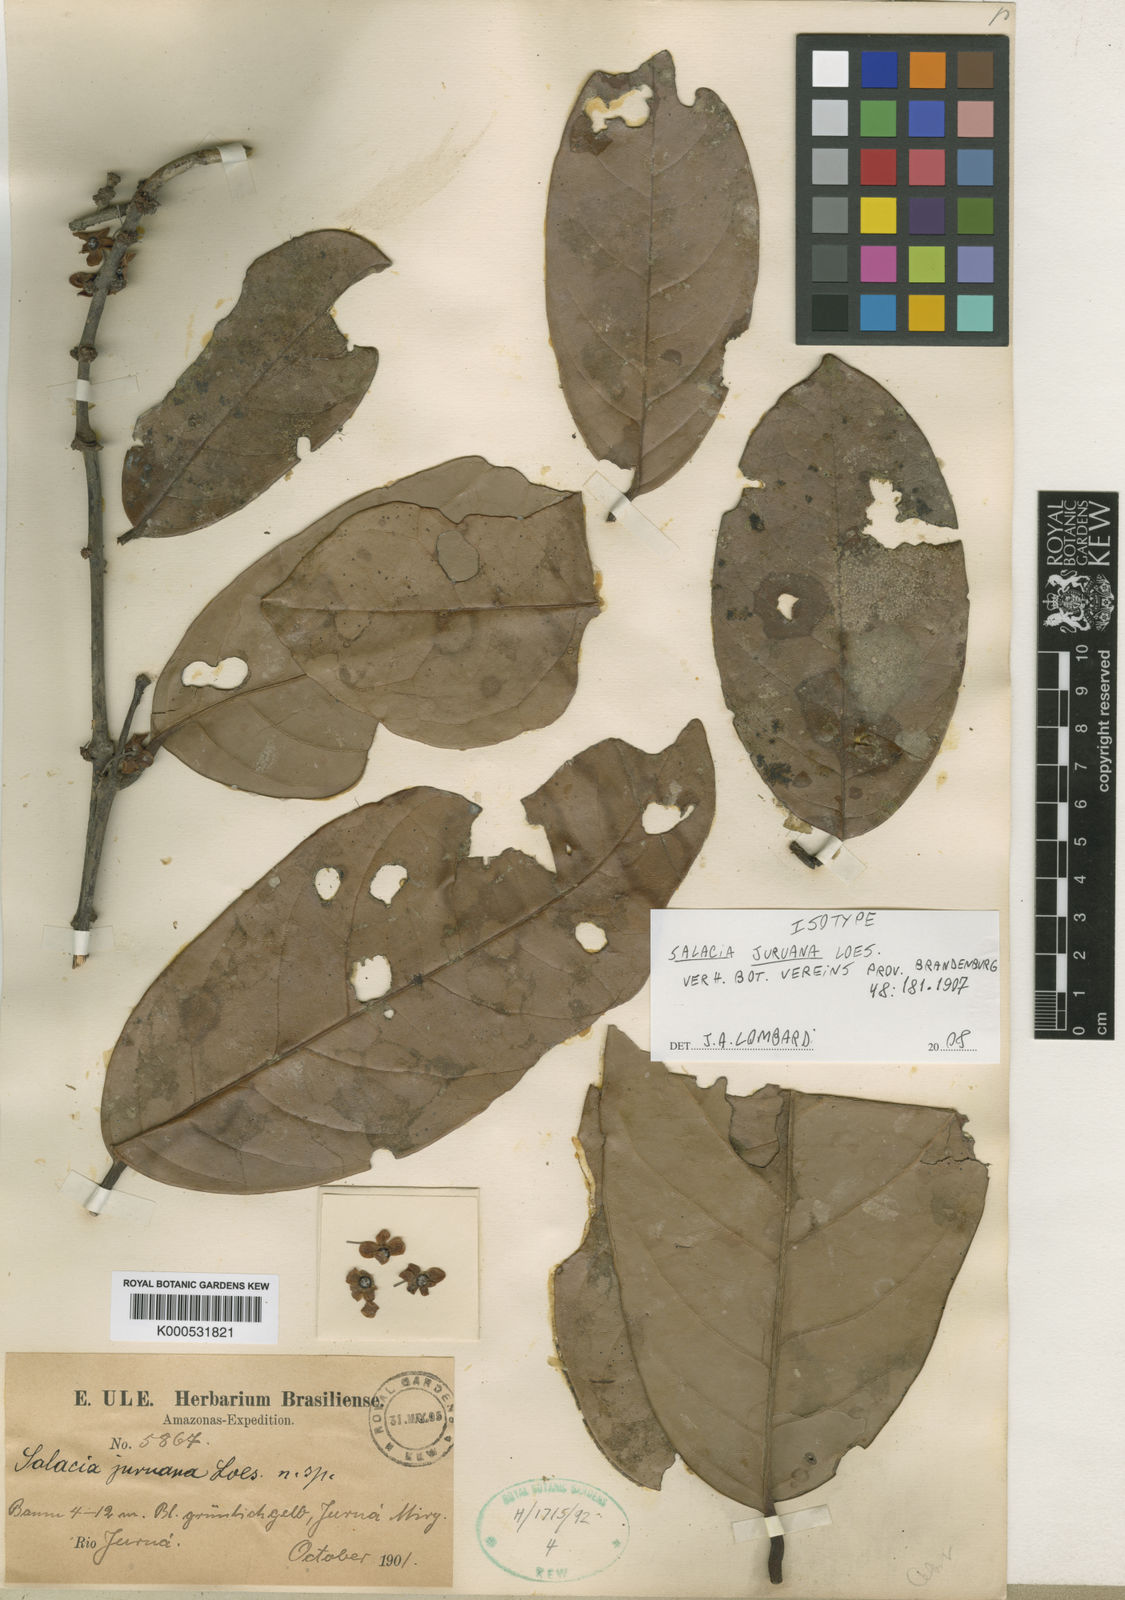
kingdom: Plantae
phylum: Tracheophyta
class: Magnoliopsida
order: Celastrales
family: Celastraceae
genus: Salacia
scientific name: Salacia juruana
